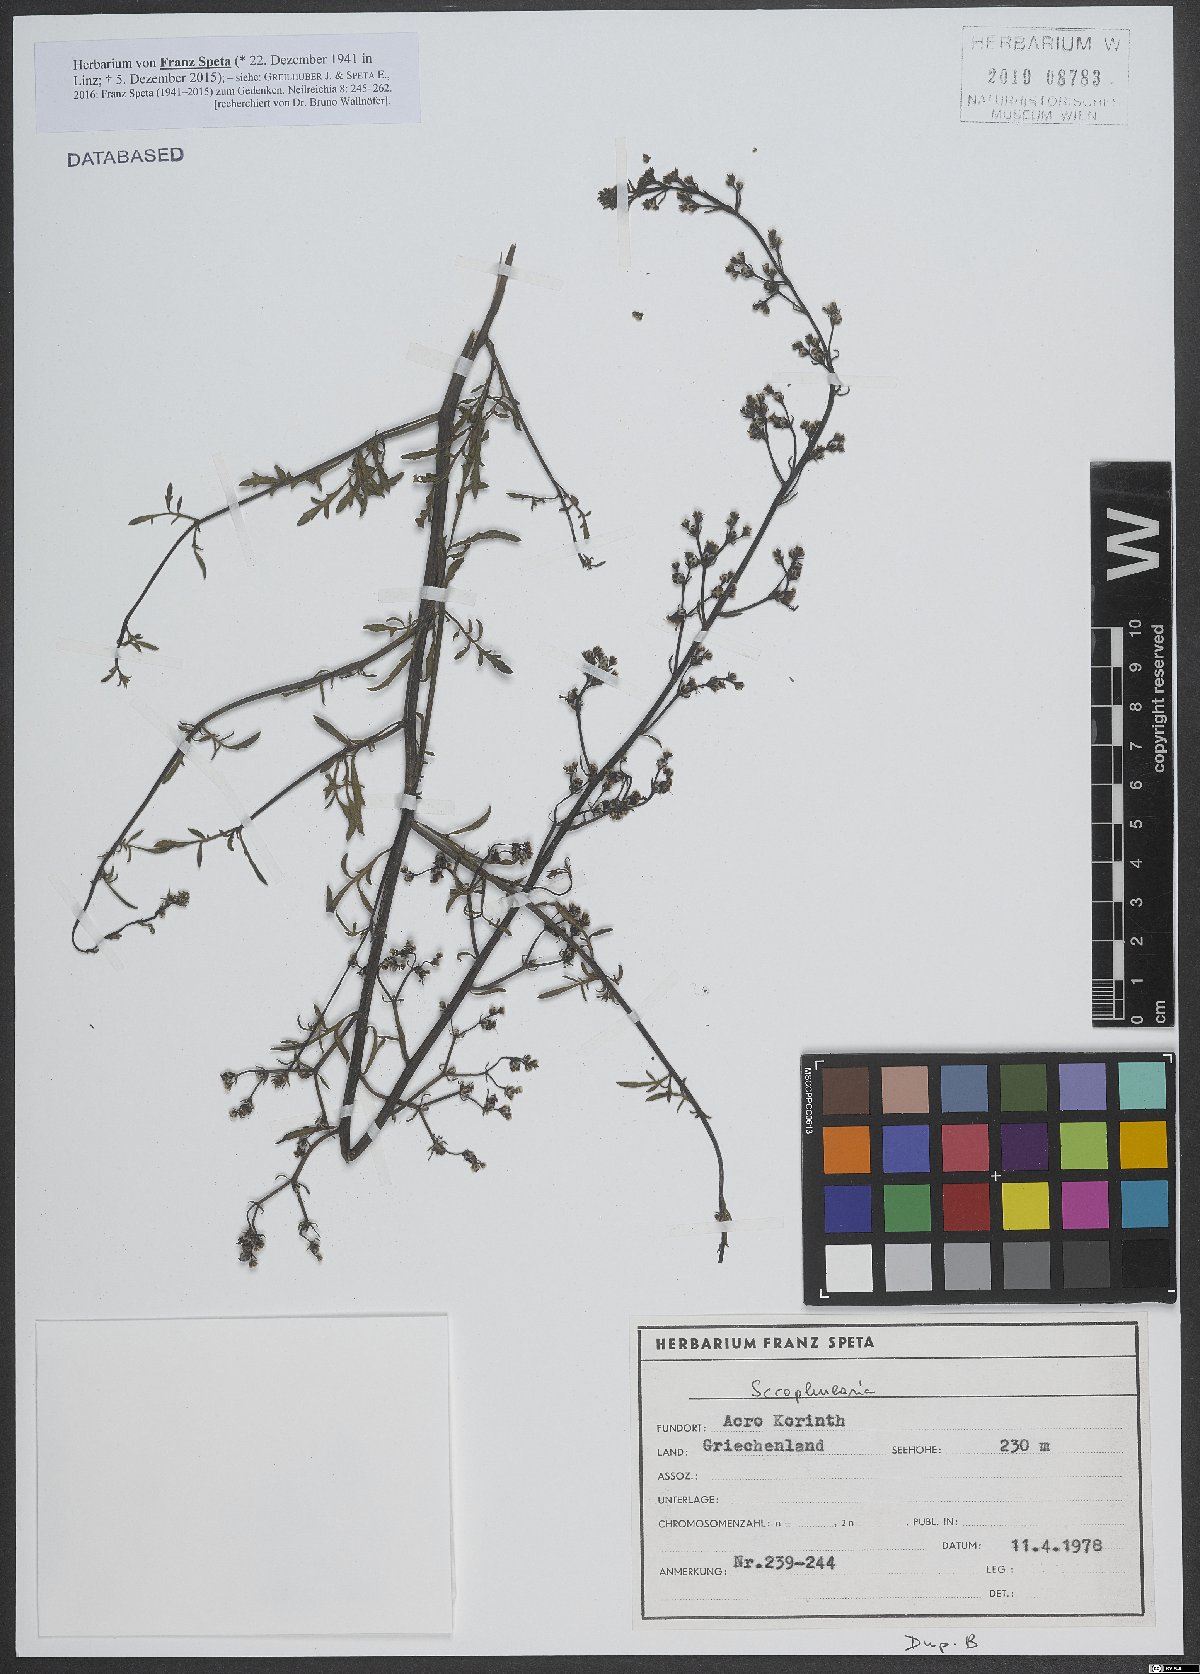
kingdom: Plantae
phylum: Tracheophyta
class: Magnoliopsida
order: Lamiales
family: Scrophulariaceae
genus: Scrophularia
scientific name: Scrophularia
